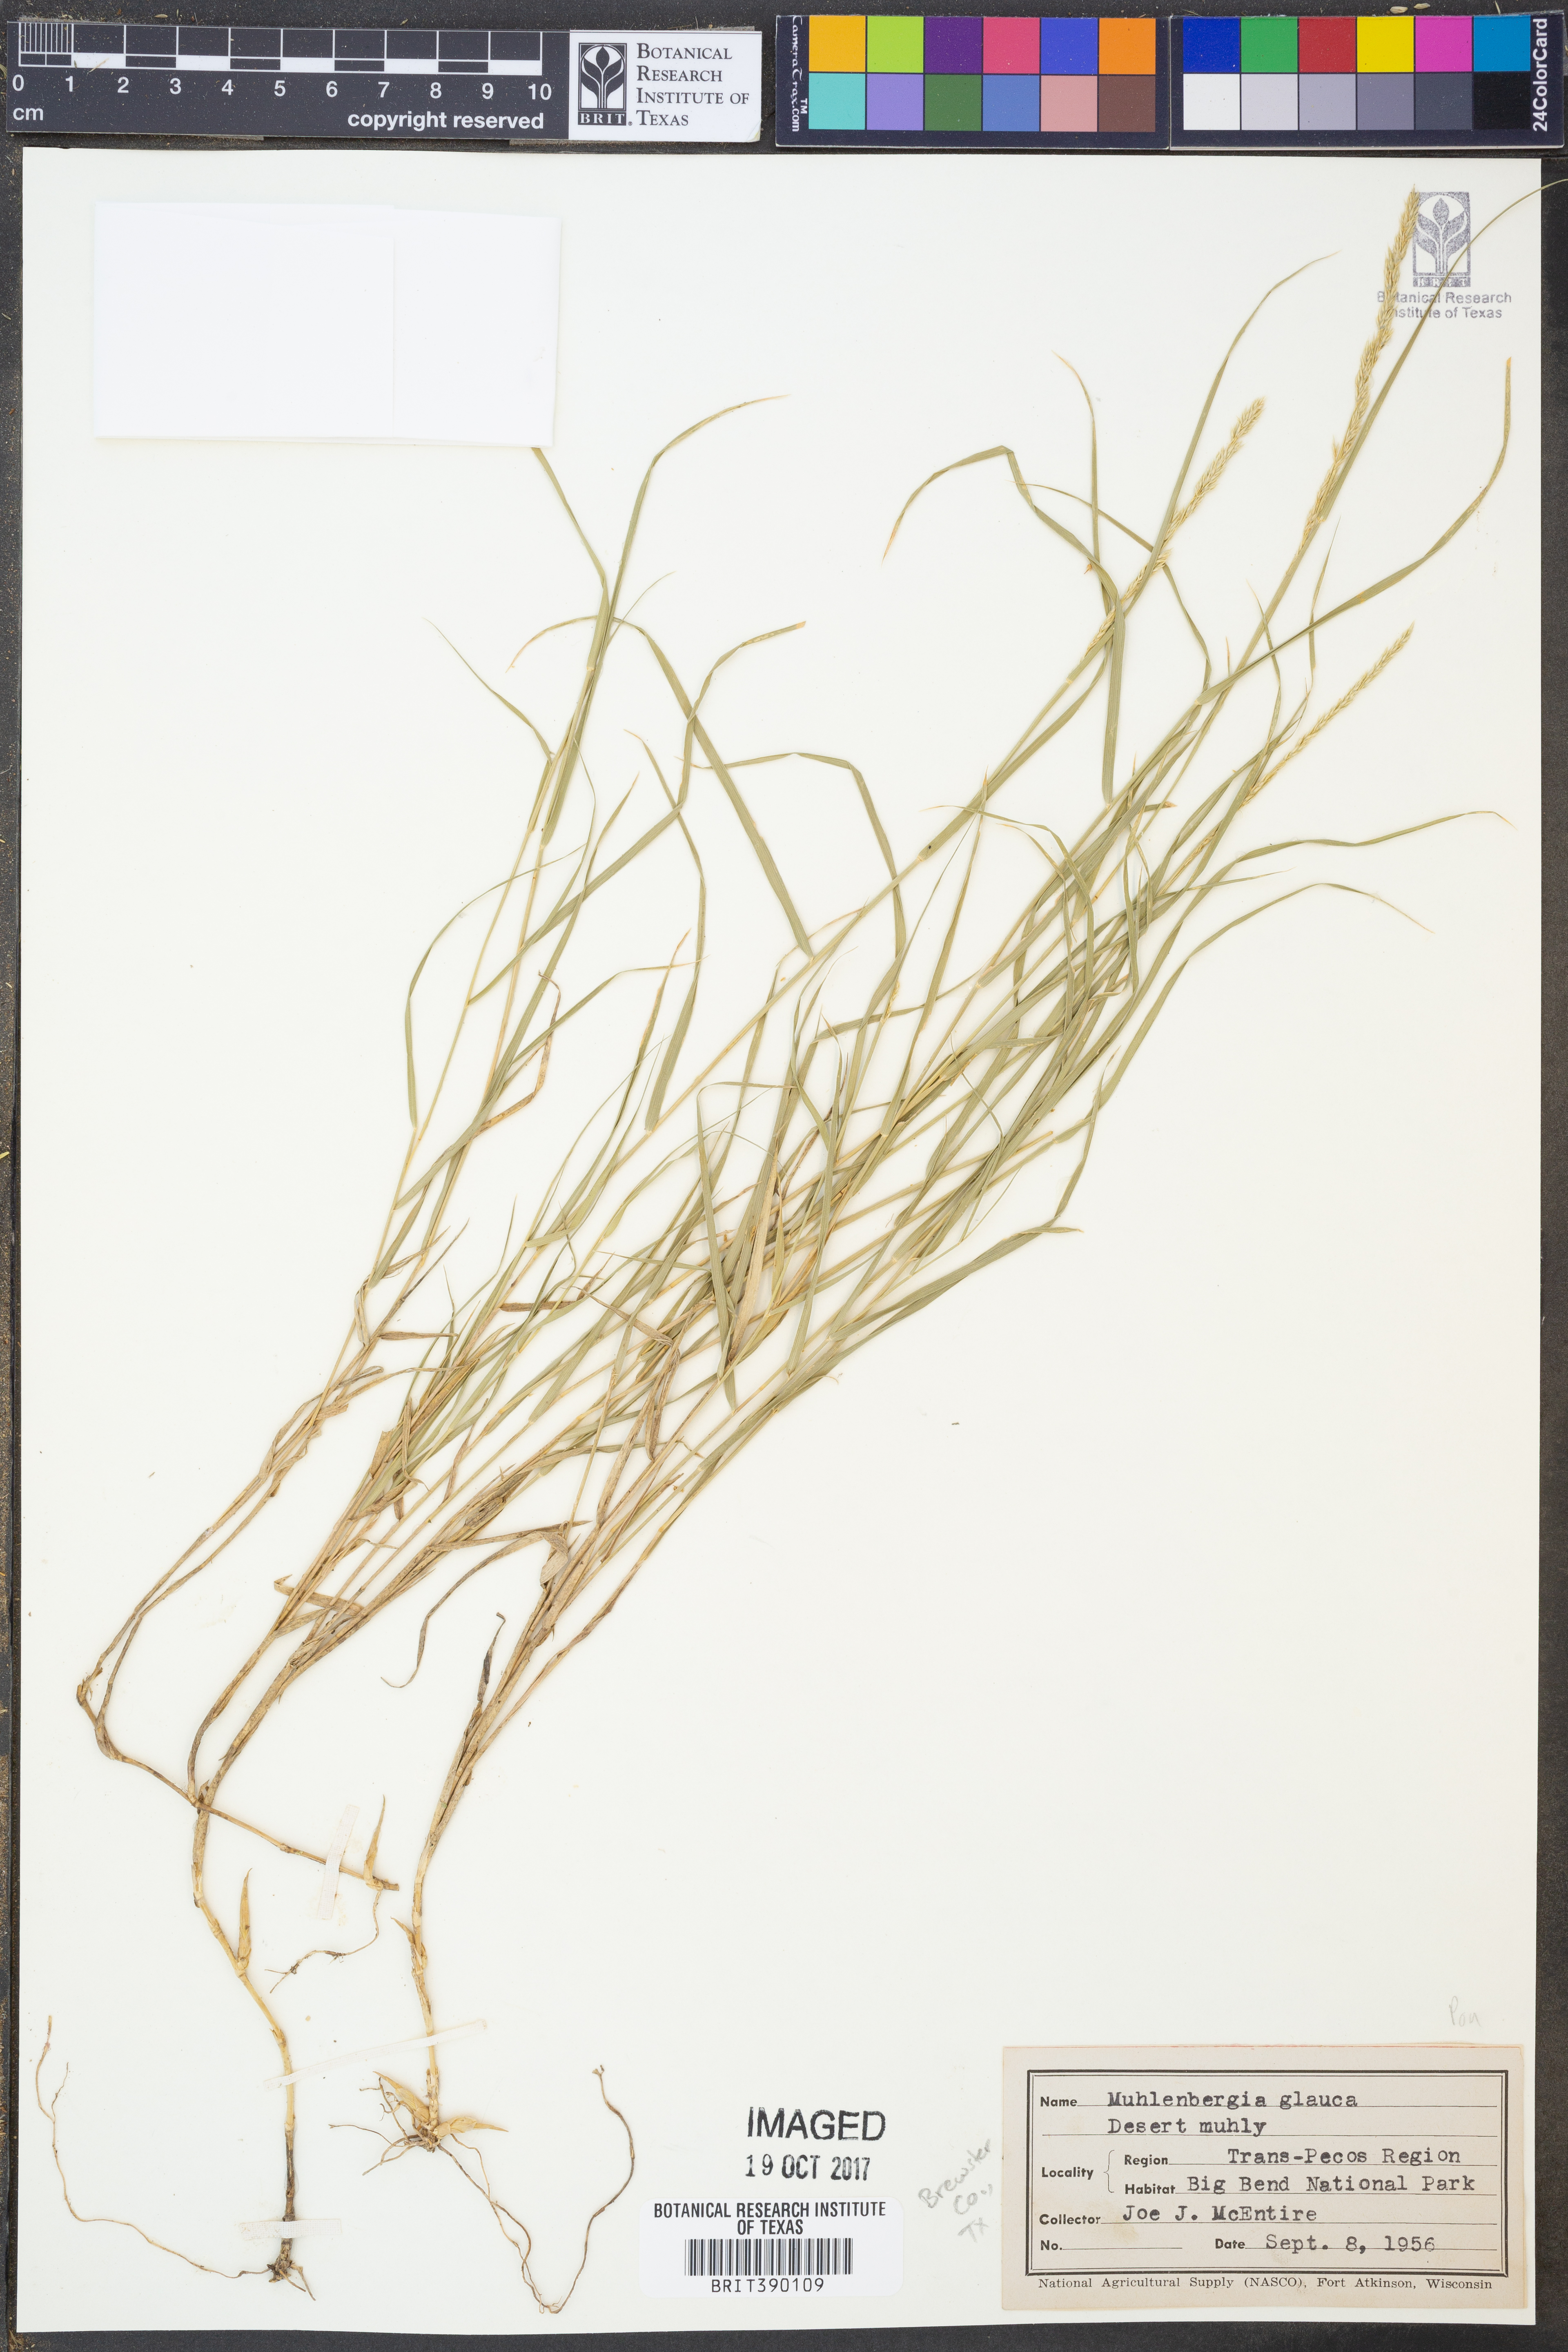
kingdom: Plantae
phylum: Tracheophyta
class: Liliopsida
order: Poales
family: Poaceae
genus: Muhlenbergia
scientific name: Muhlenbergia glauca
